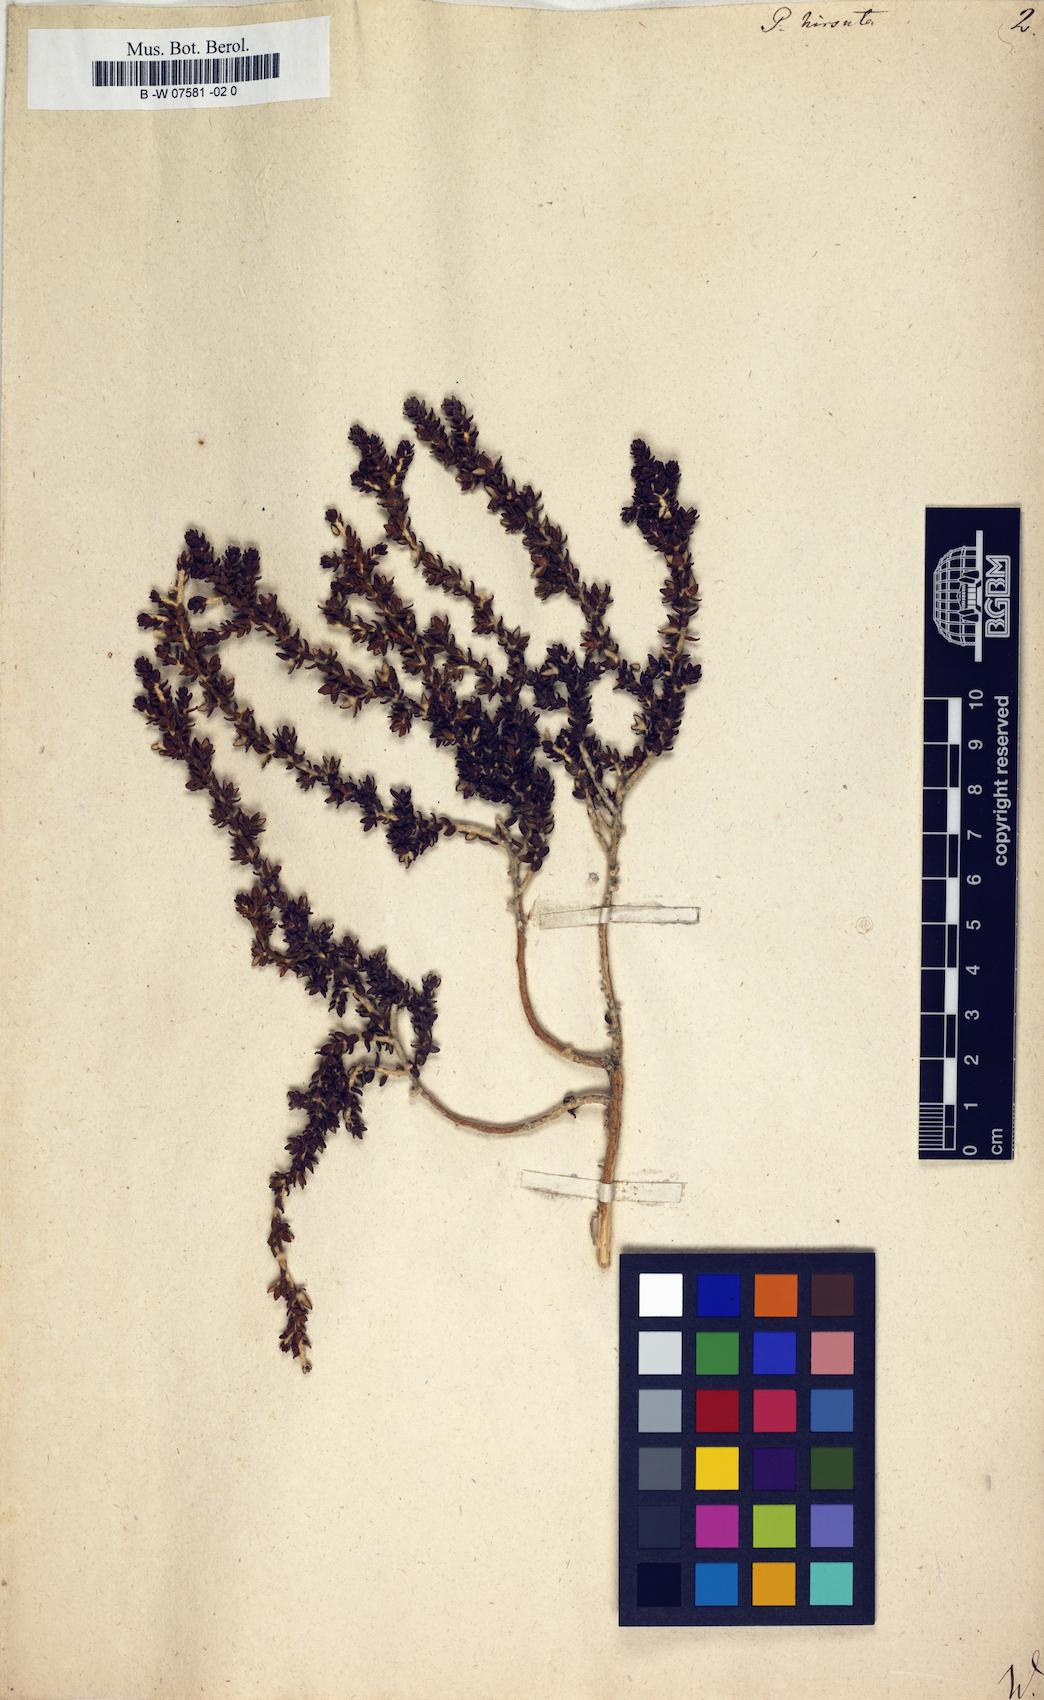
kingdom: Plantae
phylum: Tracheophyta
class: Magnoliopsida
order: Malvales
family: Thymelaeaceae
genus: Thymelaea
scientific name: Thymelaea
